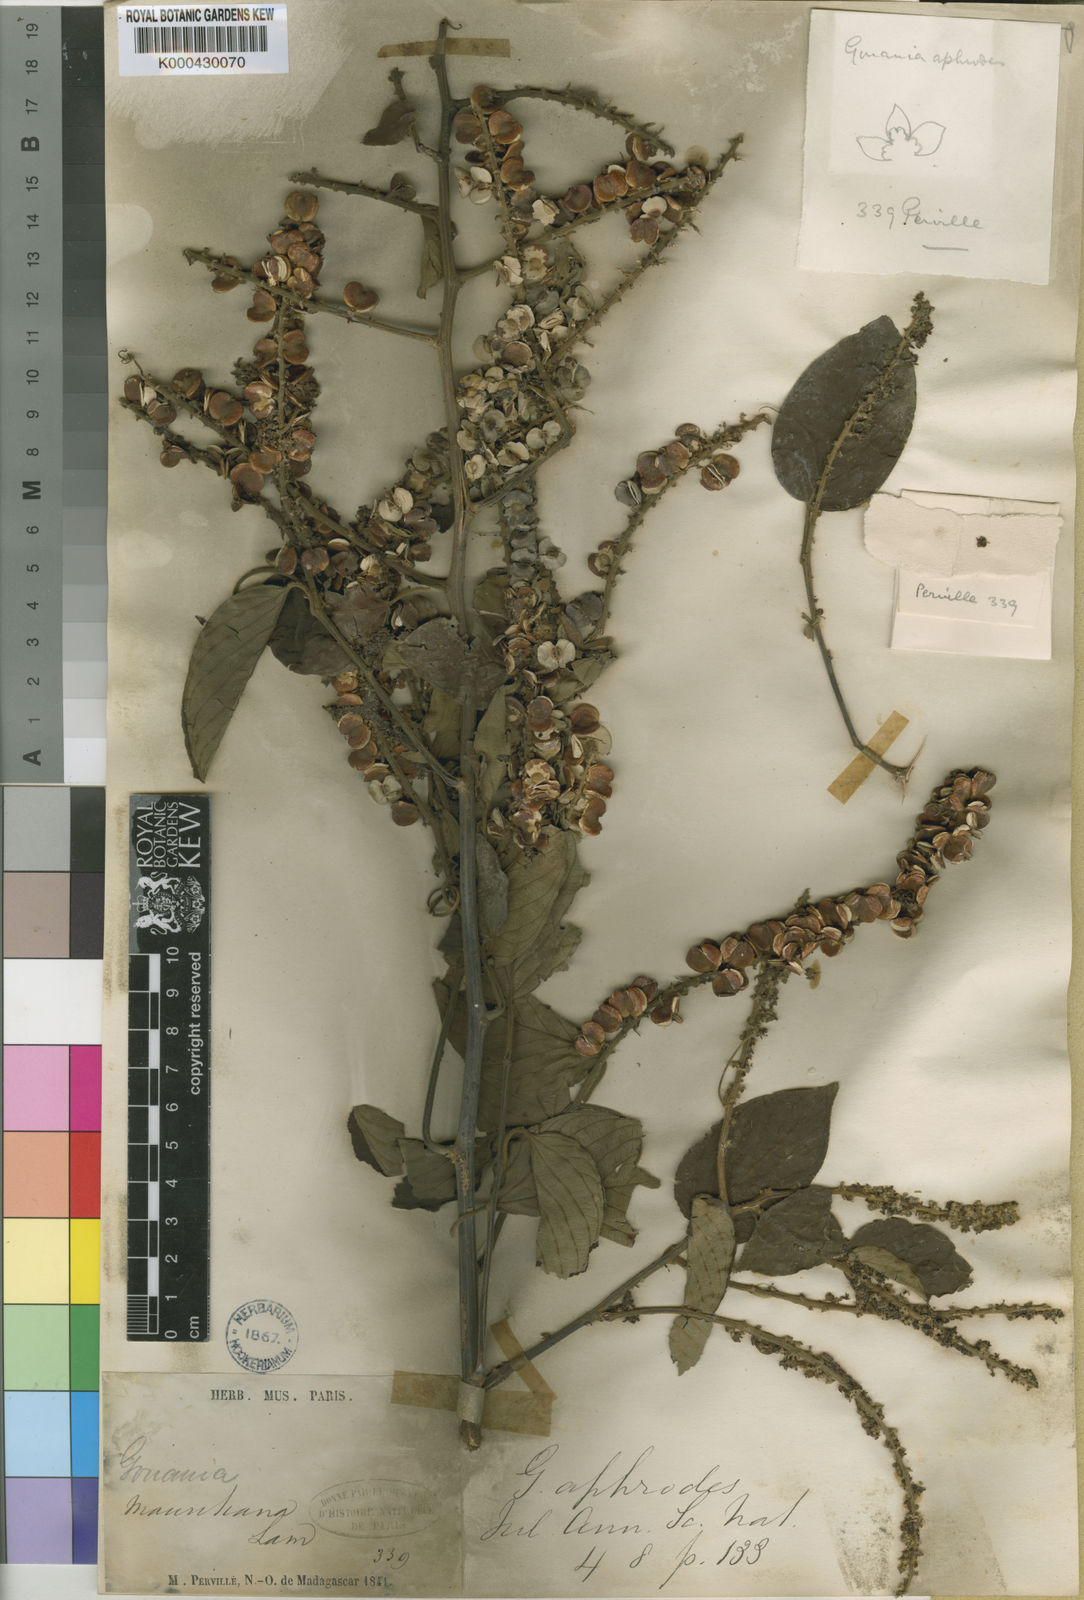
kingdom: Plantae
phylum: Tracheophyta
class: Magnoliopsida
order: Rosales
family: Rhamnaceae
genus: Gouania
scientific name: Gouania mauritiana
